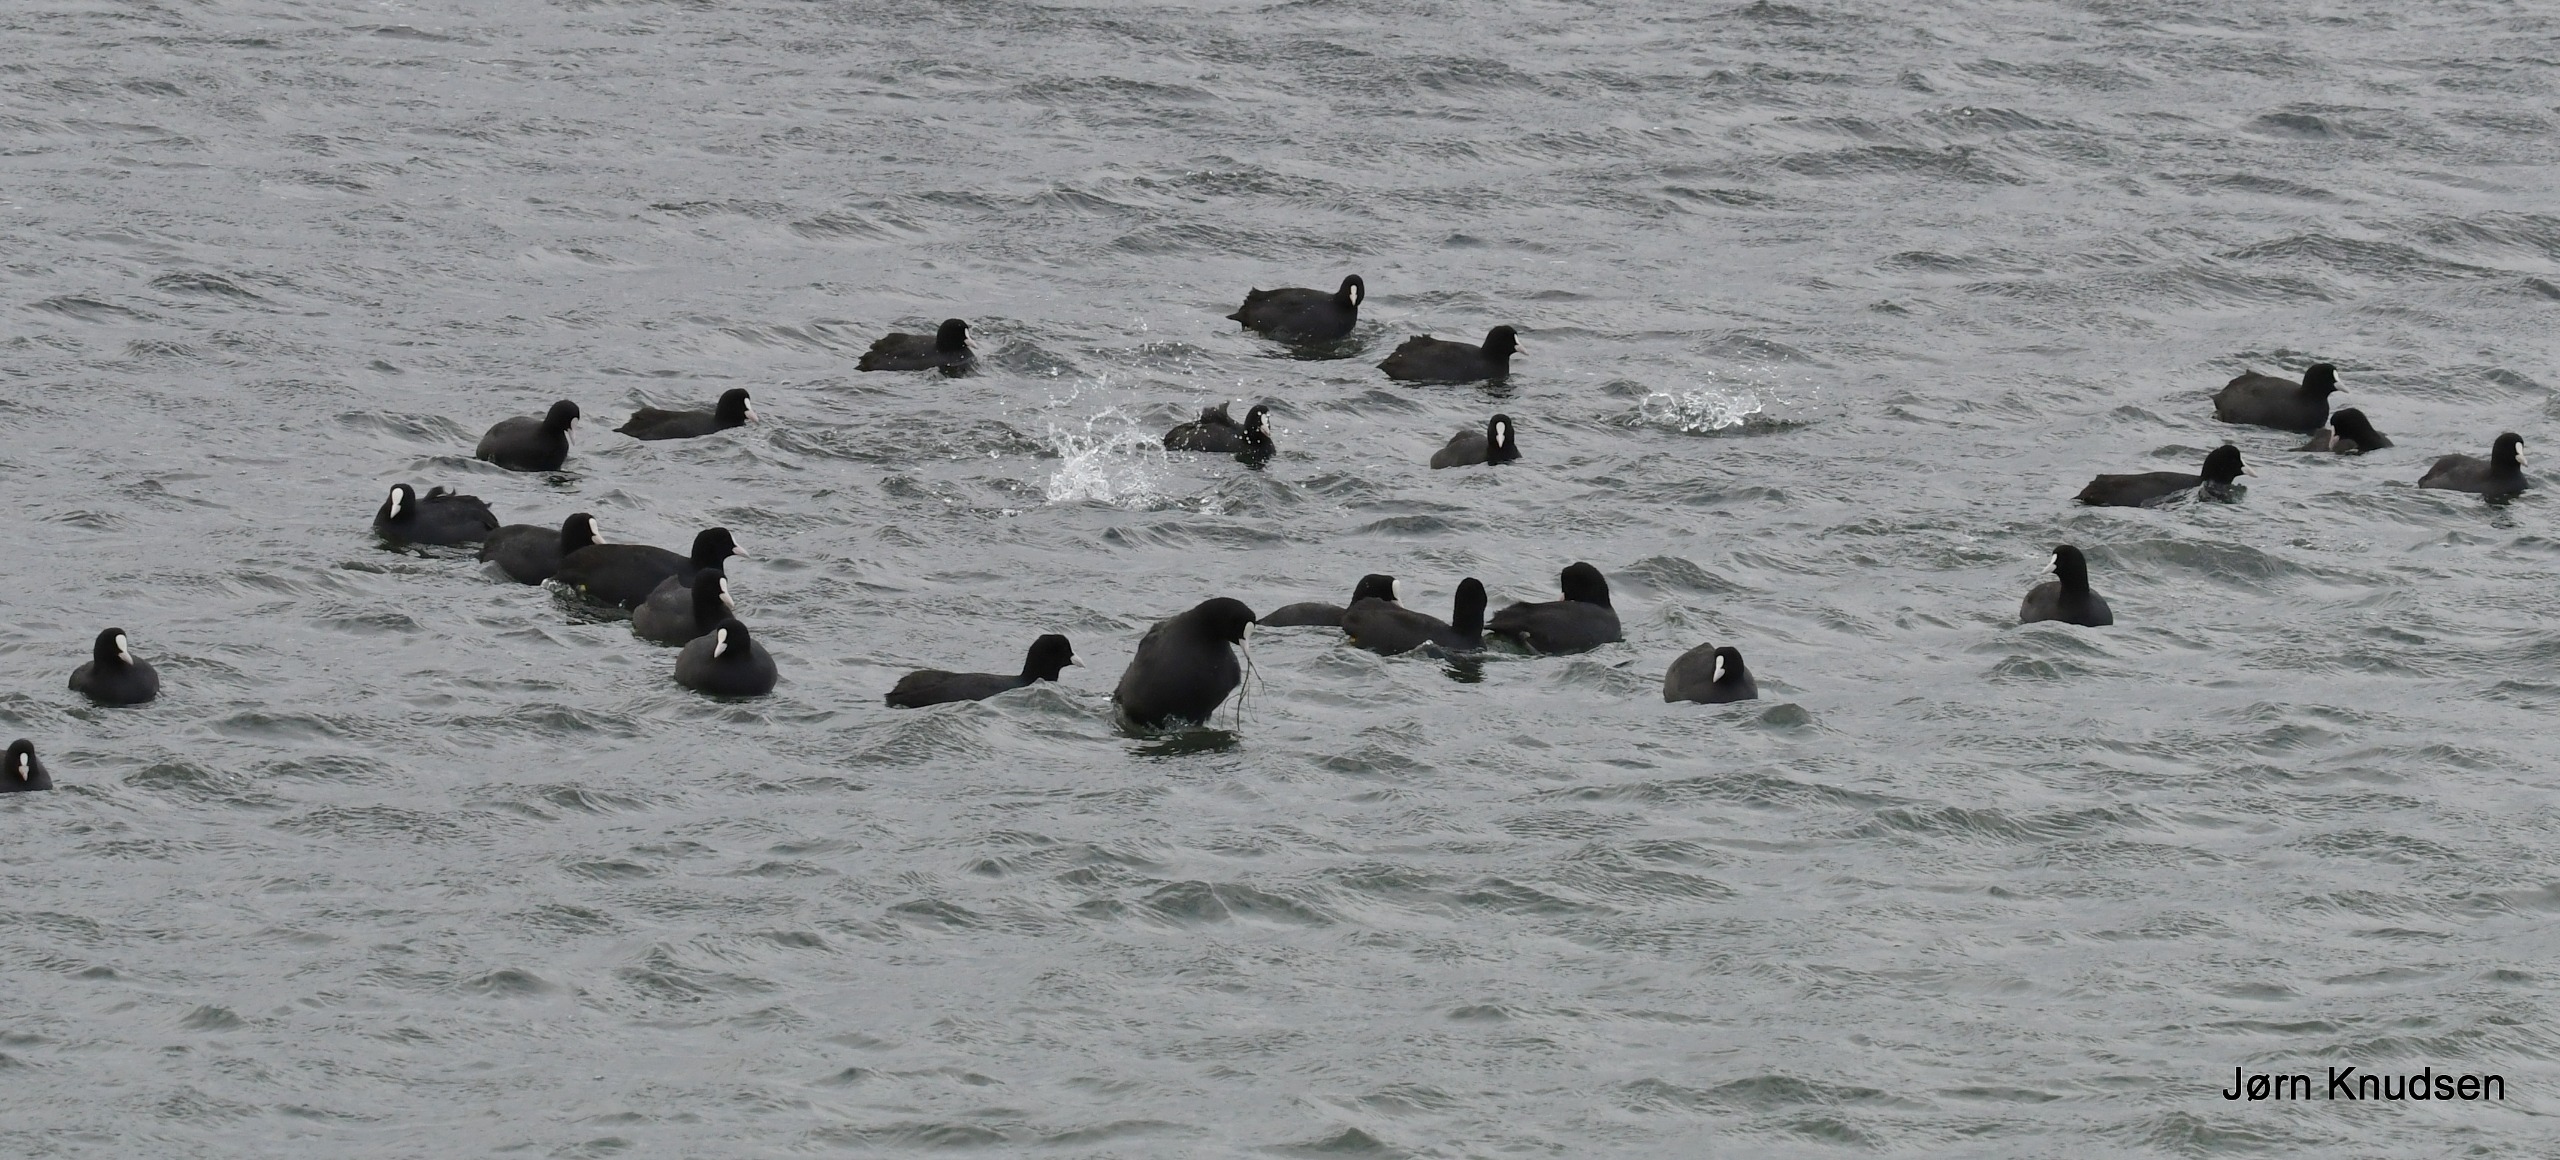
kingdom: Animalia
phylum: Chordata
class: Aves
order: Gruiformes
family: Rallidae
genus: Fulica
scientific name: Fulica atra
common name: Blishøne
